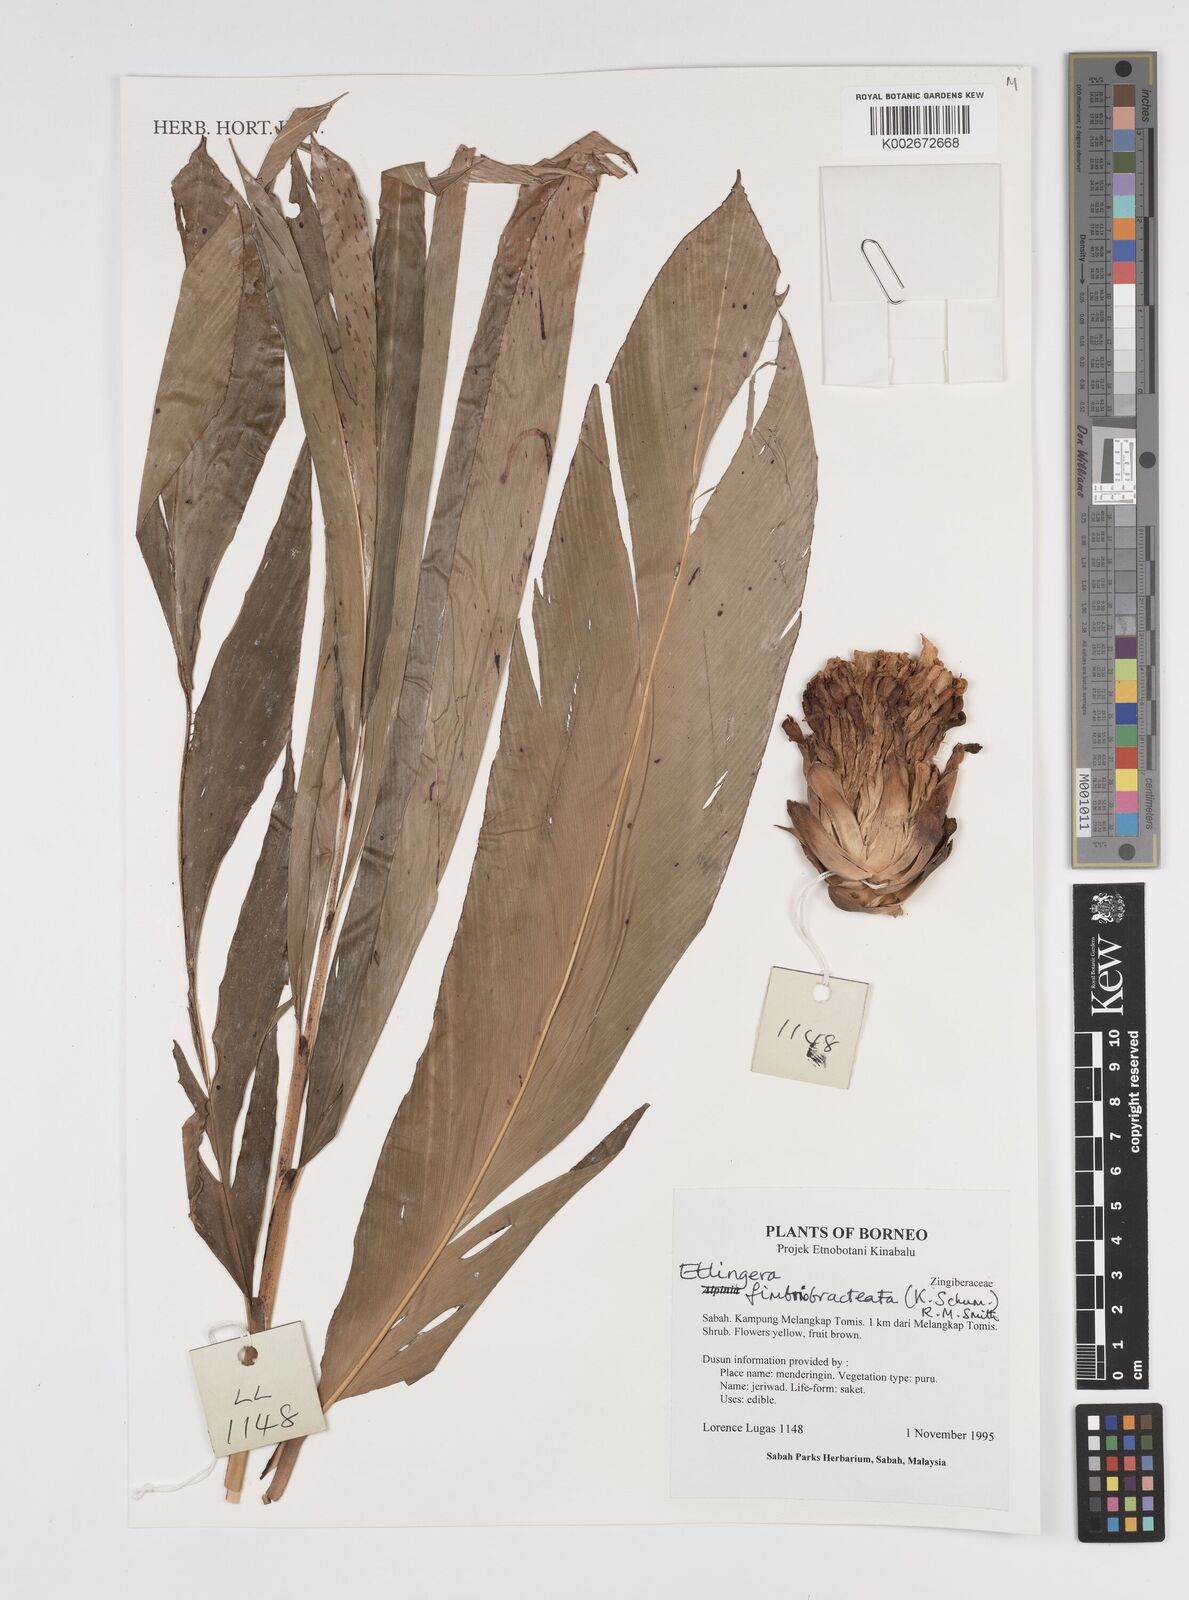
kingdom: Plantae
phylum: Tracheophyta
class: Liliopsida
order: Zingiberales
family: Zingiberaceae
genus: Etlingera
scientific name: Etlingera fimbriobracteata
